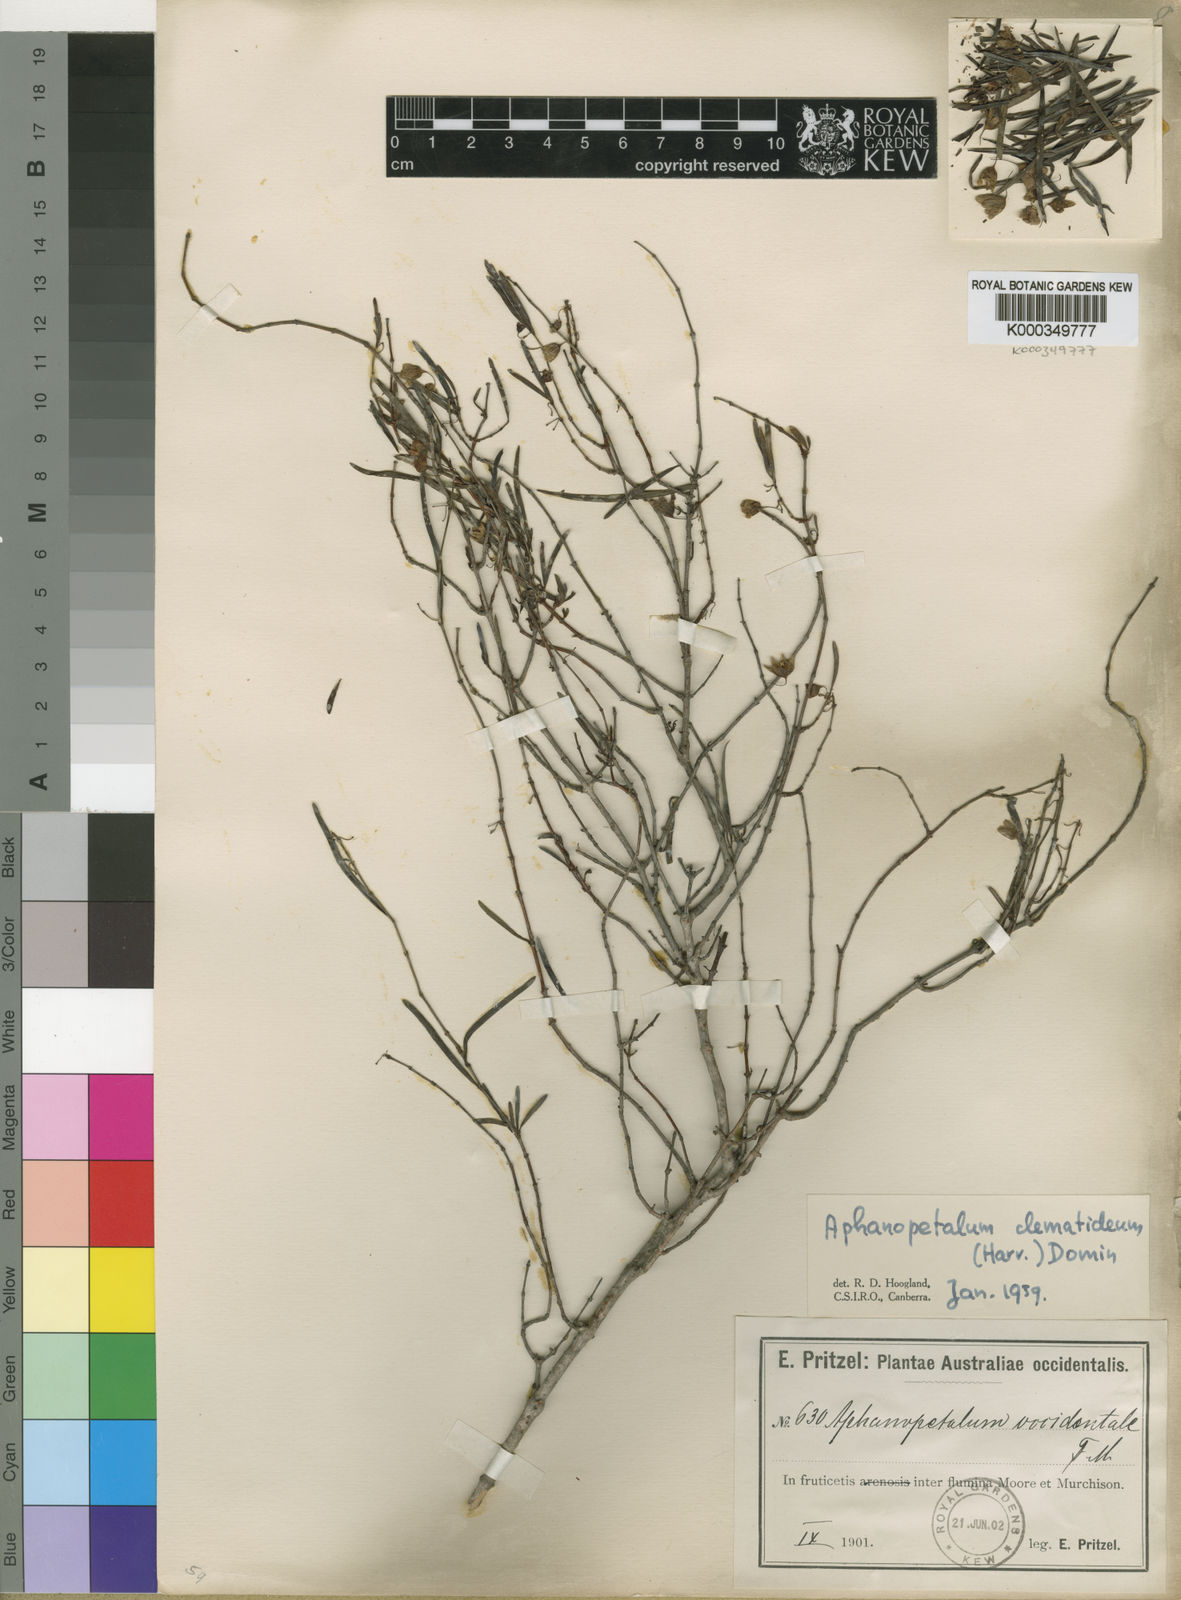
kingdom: Plantae
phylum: Tracheophyta
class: Magnoliopsida
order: Saxifragales
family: Aphanopetalaceae
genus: Aphanopetalum
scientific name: Aphanopetalum clematideum
